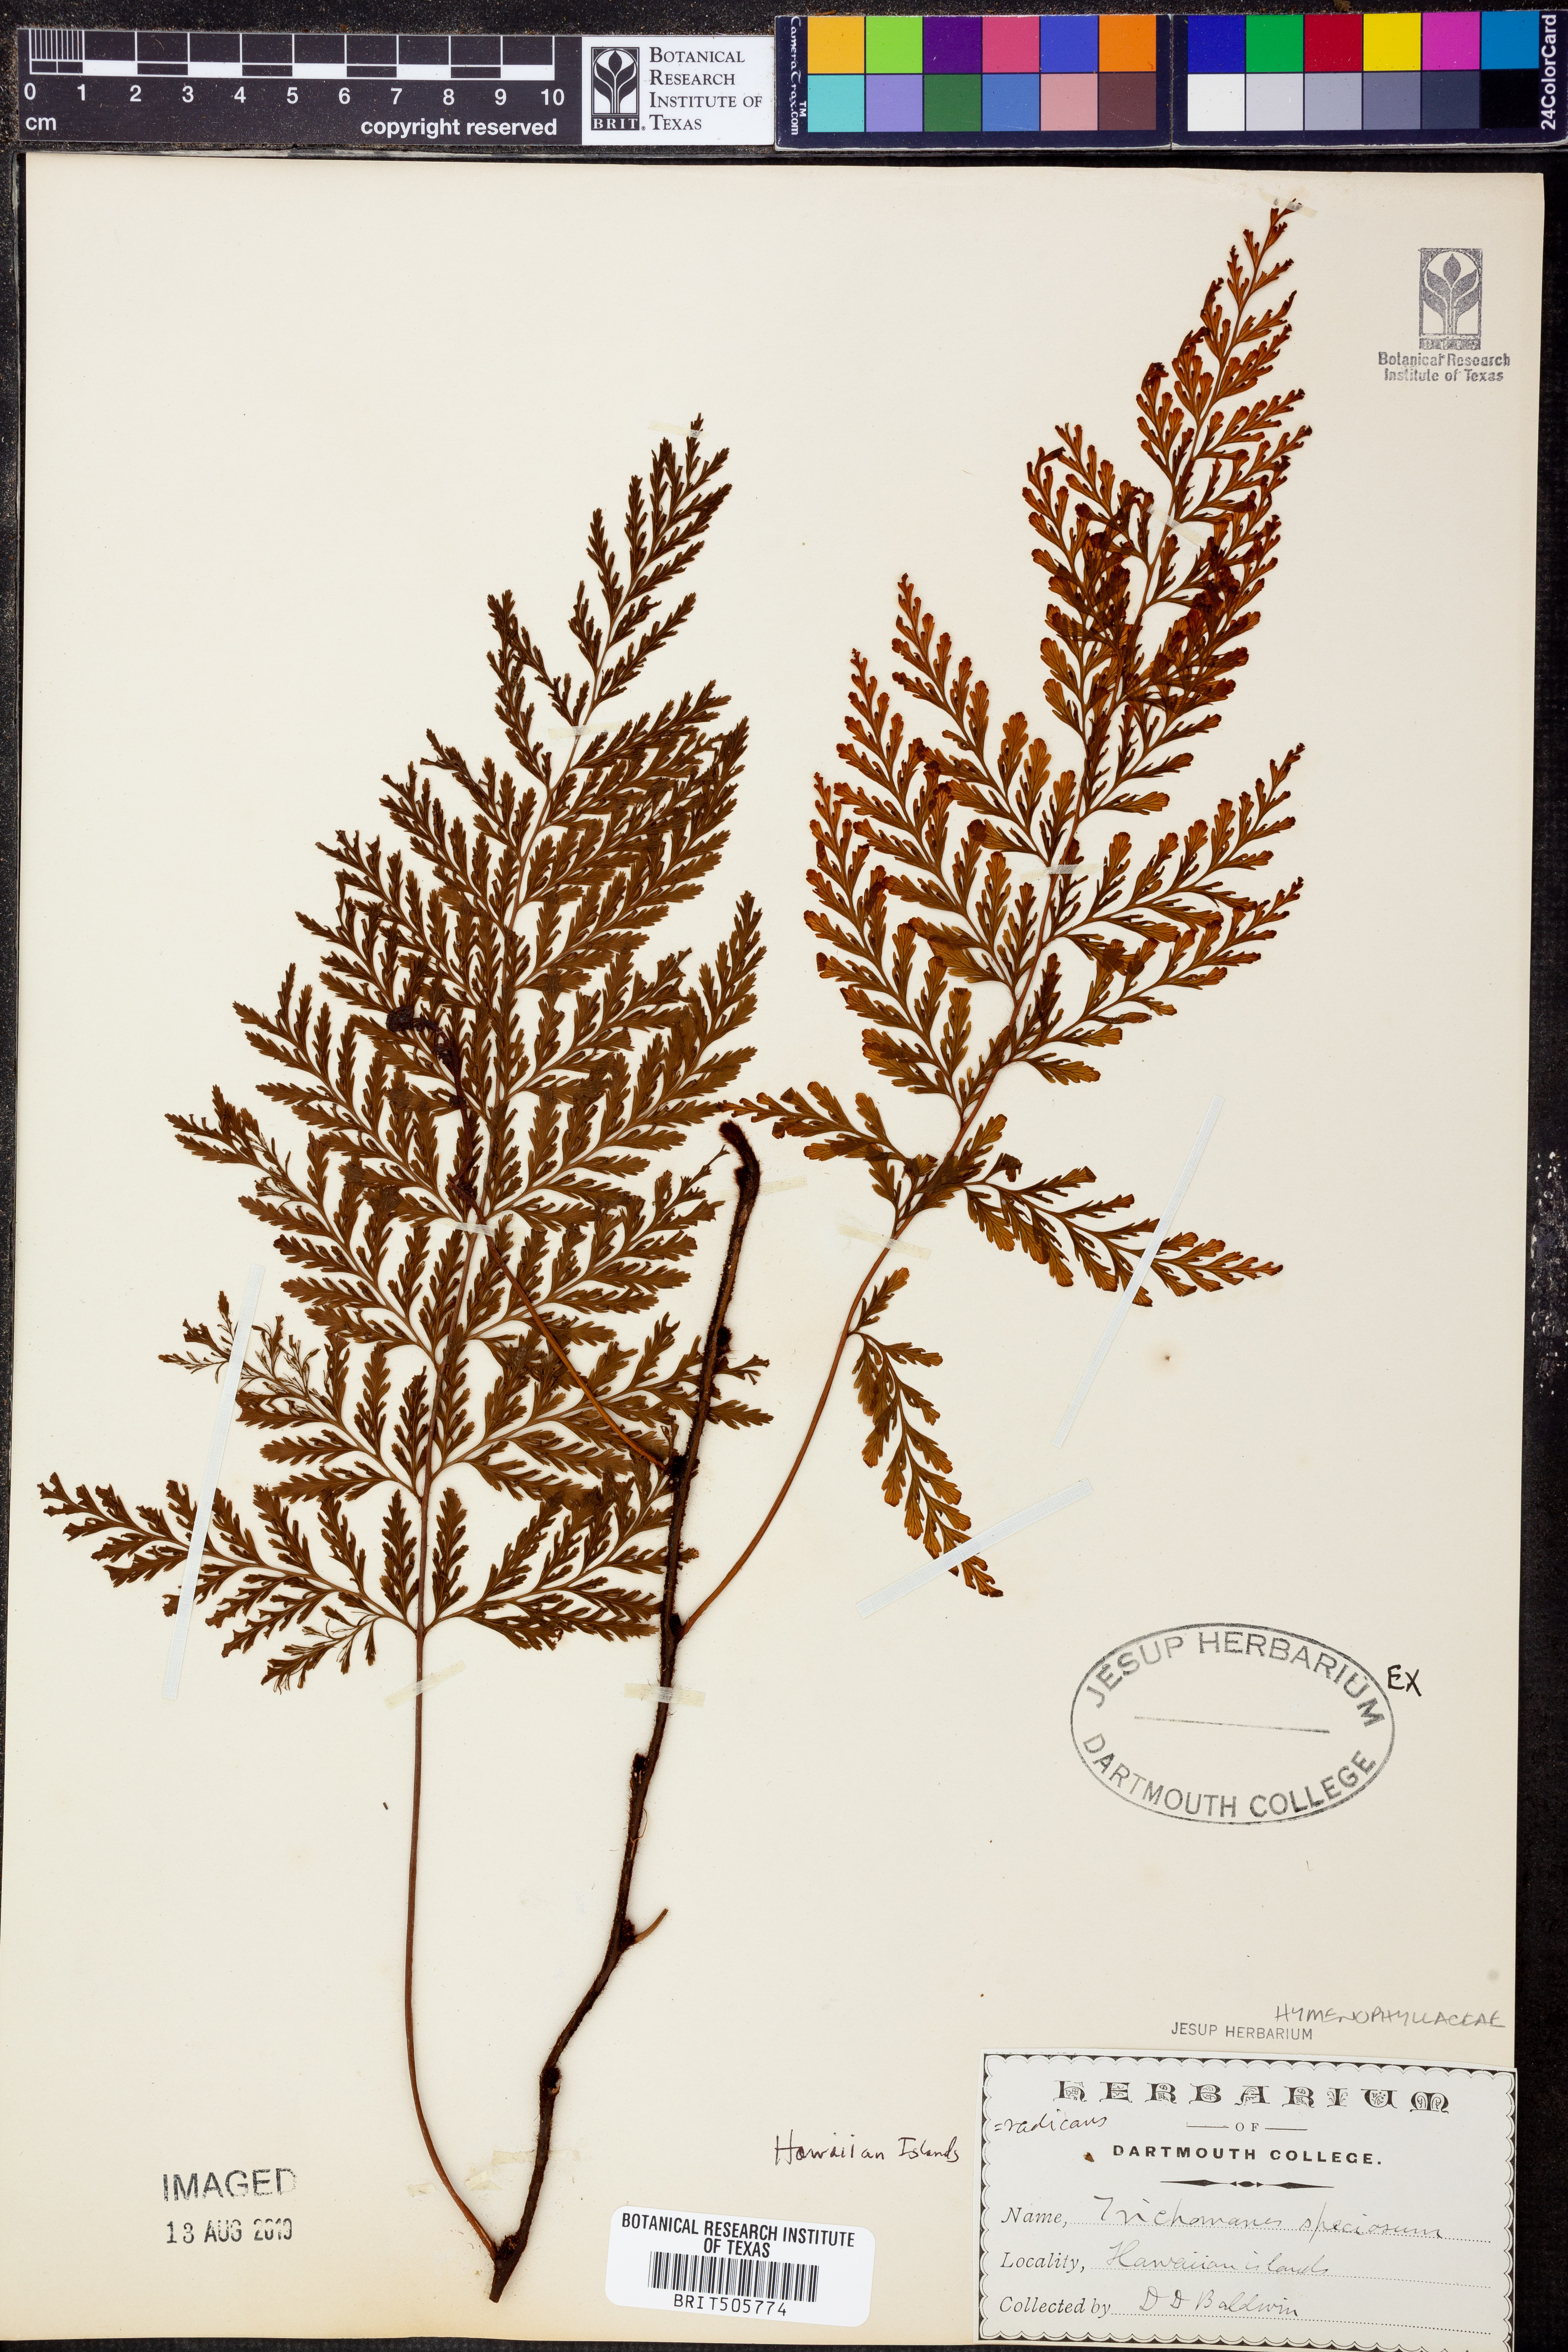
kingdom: Plantae
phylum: Tracheophyta
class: Polypodiopsida
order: Hymenophyllales
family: Hymenophyllaceae
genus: Vandenboschia
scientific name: Vandenboschia speciosa
